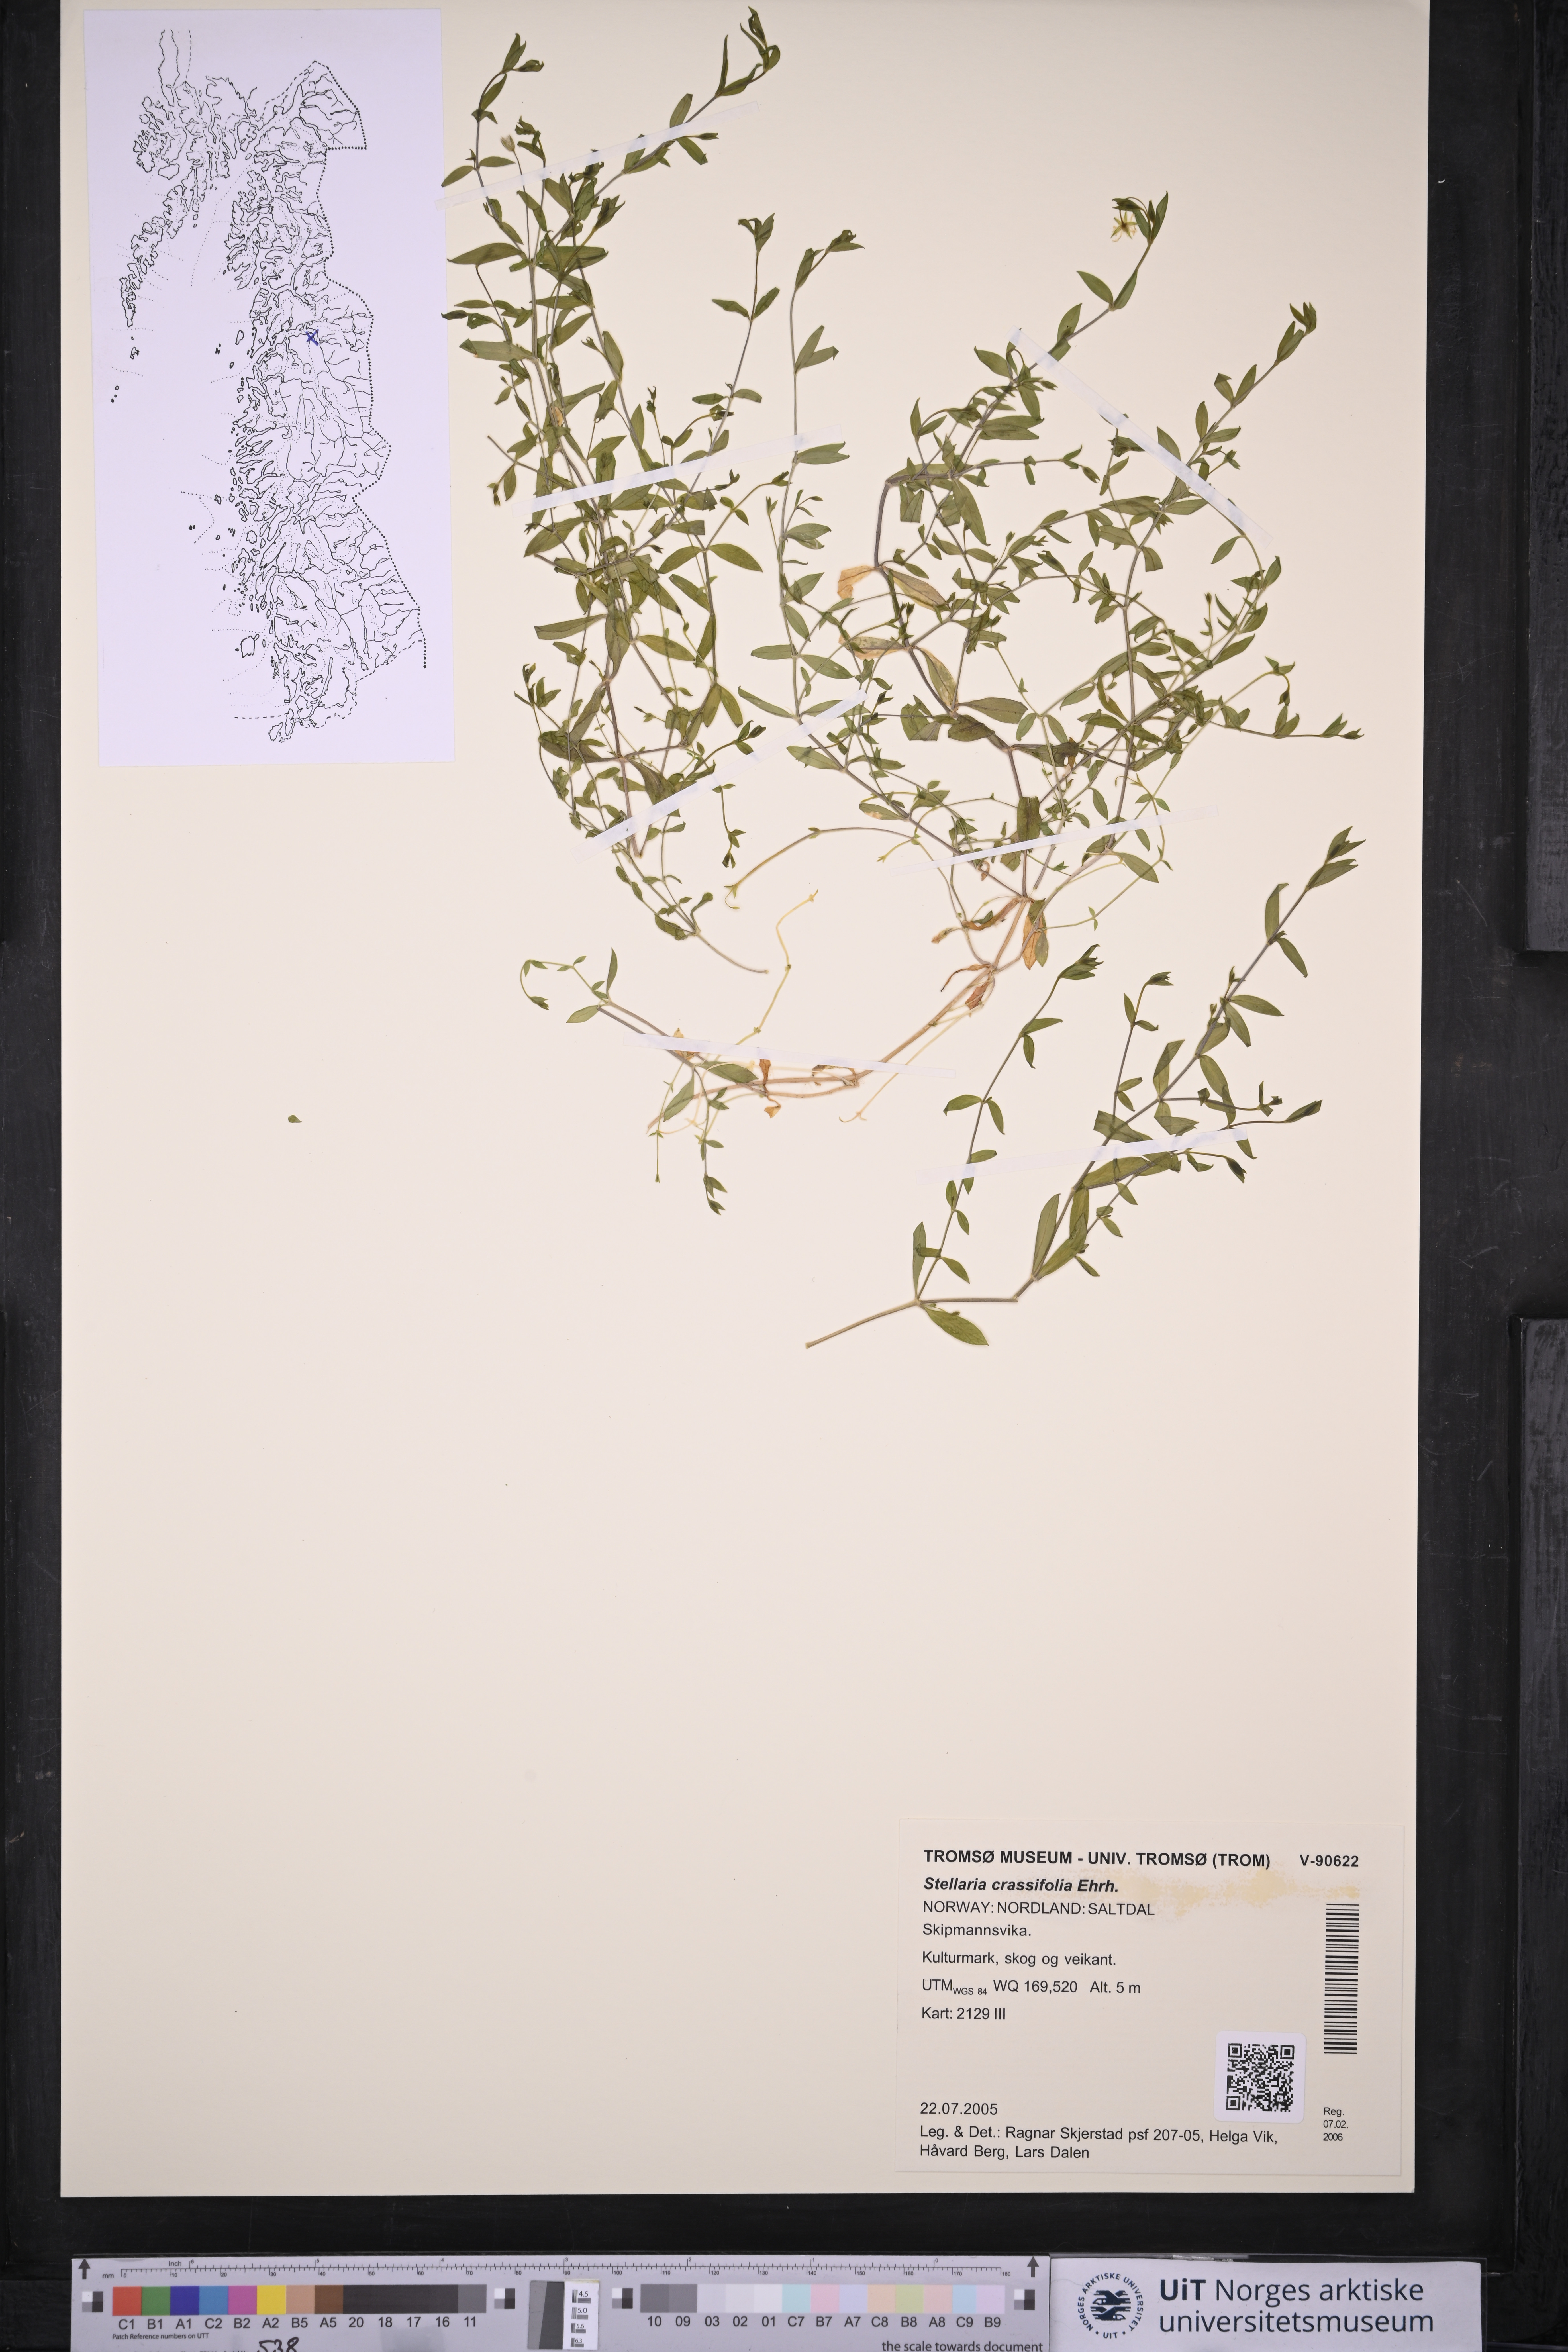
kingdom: Plantae
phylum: Tracheophyta
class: Magnoliopsida
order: Caryophyllales
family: Caryophyllaceae
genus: Stellaria
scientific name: Stellaria crassifolia
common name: Fleshy starwort
